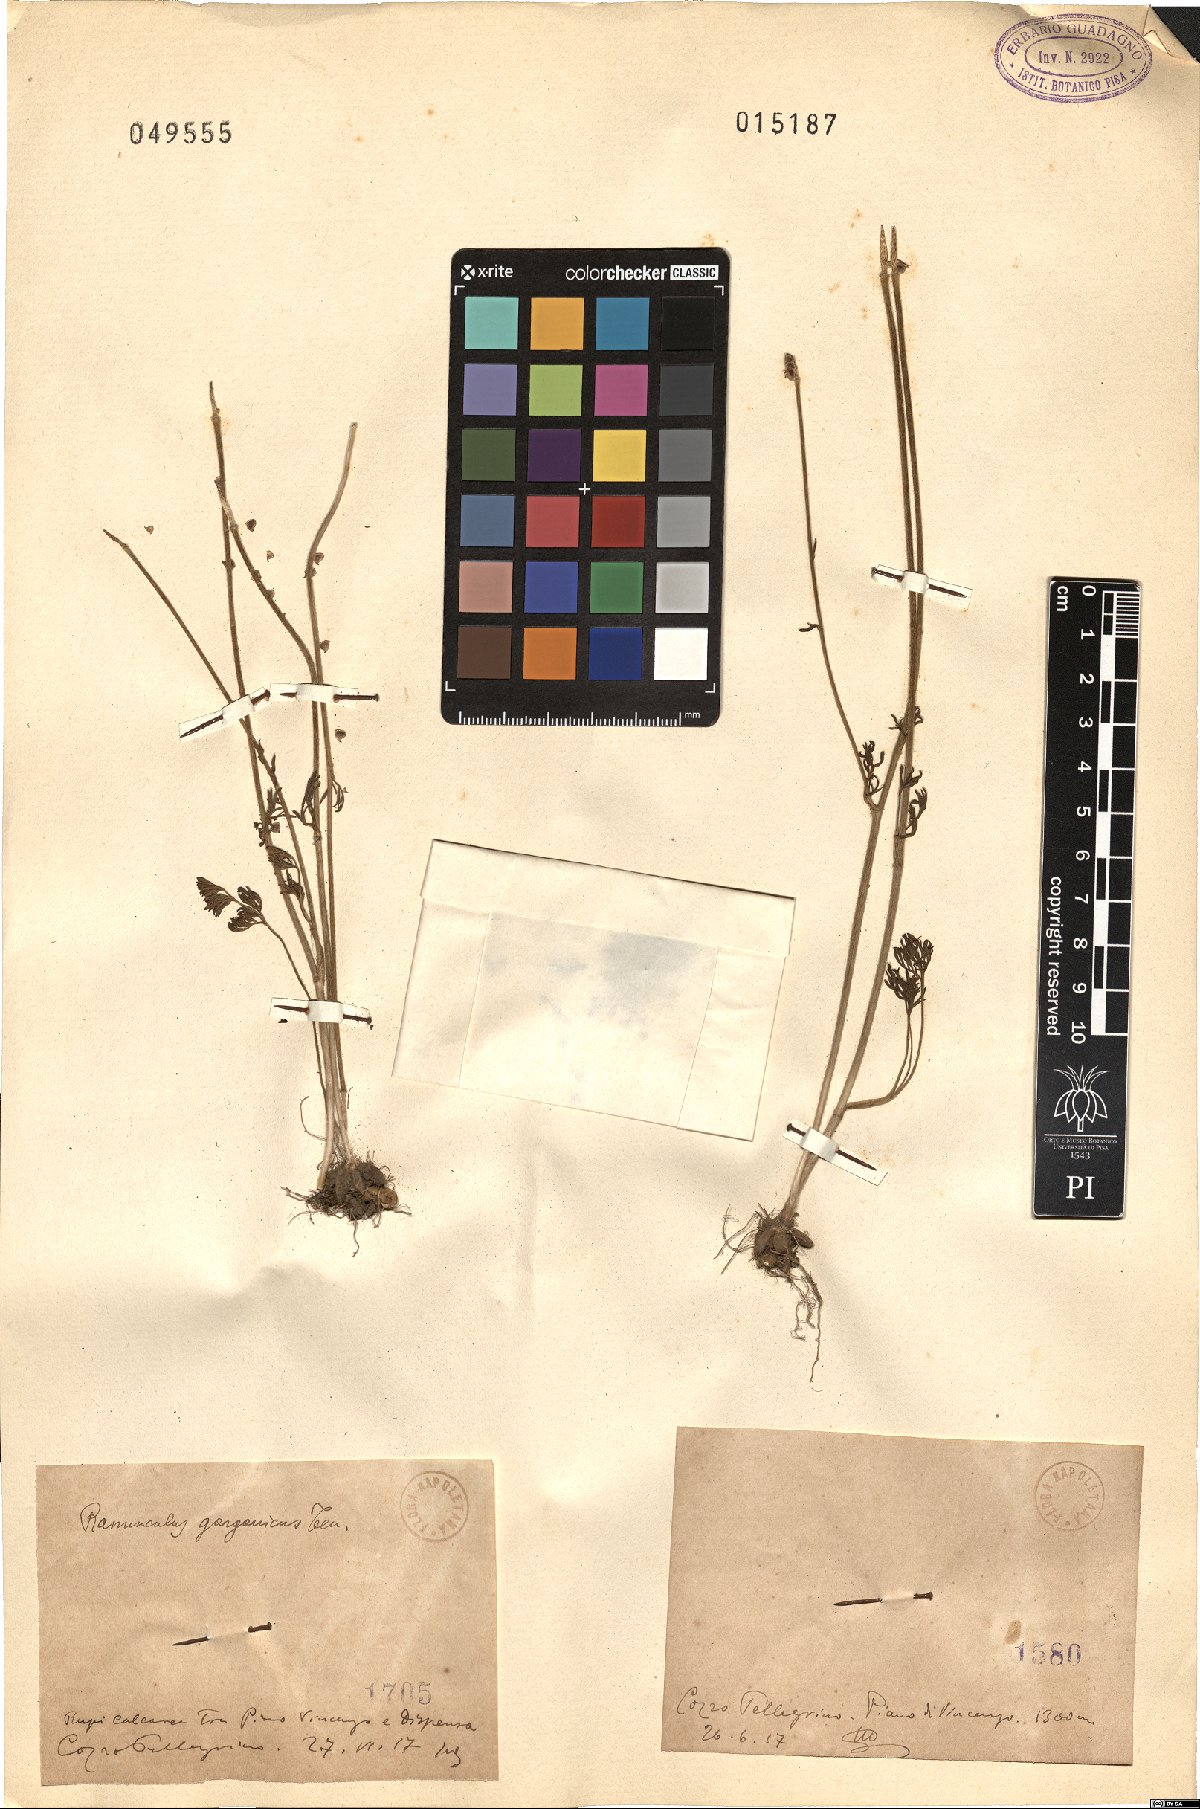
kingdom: Plantae
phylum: Tracheophyta
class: Magnoliopsida
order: Ranunculales
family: Ranunculaceae
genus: Ranunculus
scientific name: Ranunculus garganicus
